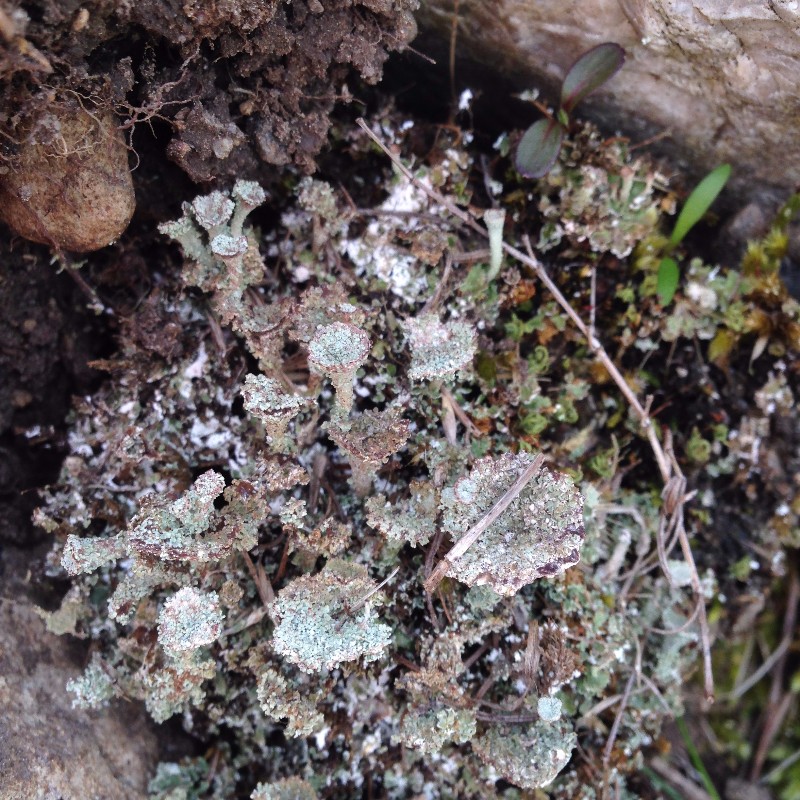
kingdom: Fungi
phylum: Ascomycota
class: Lecanoromycetes
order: Lecanorales
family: Cladoniaceae
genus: Cladonia
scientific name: Cladonia pyxidata
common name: tragt-bægerlav
